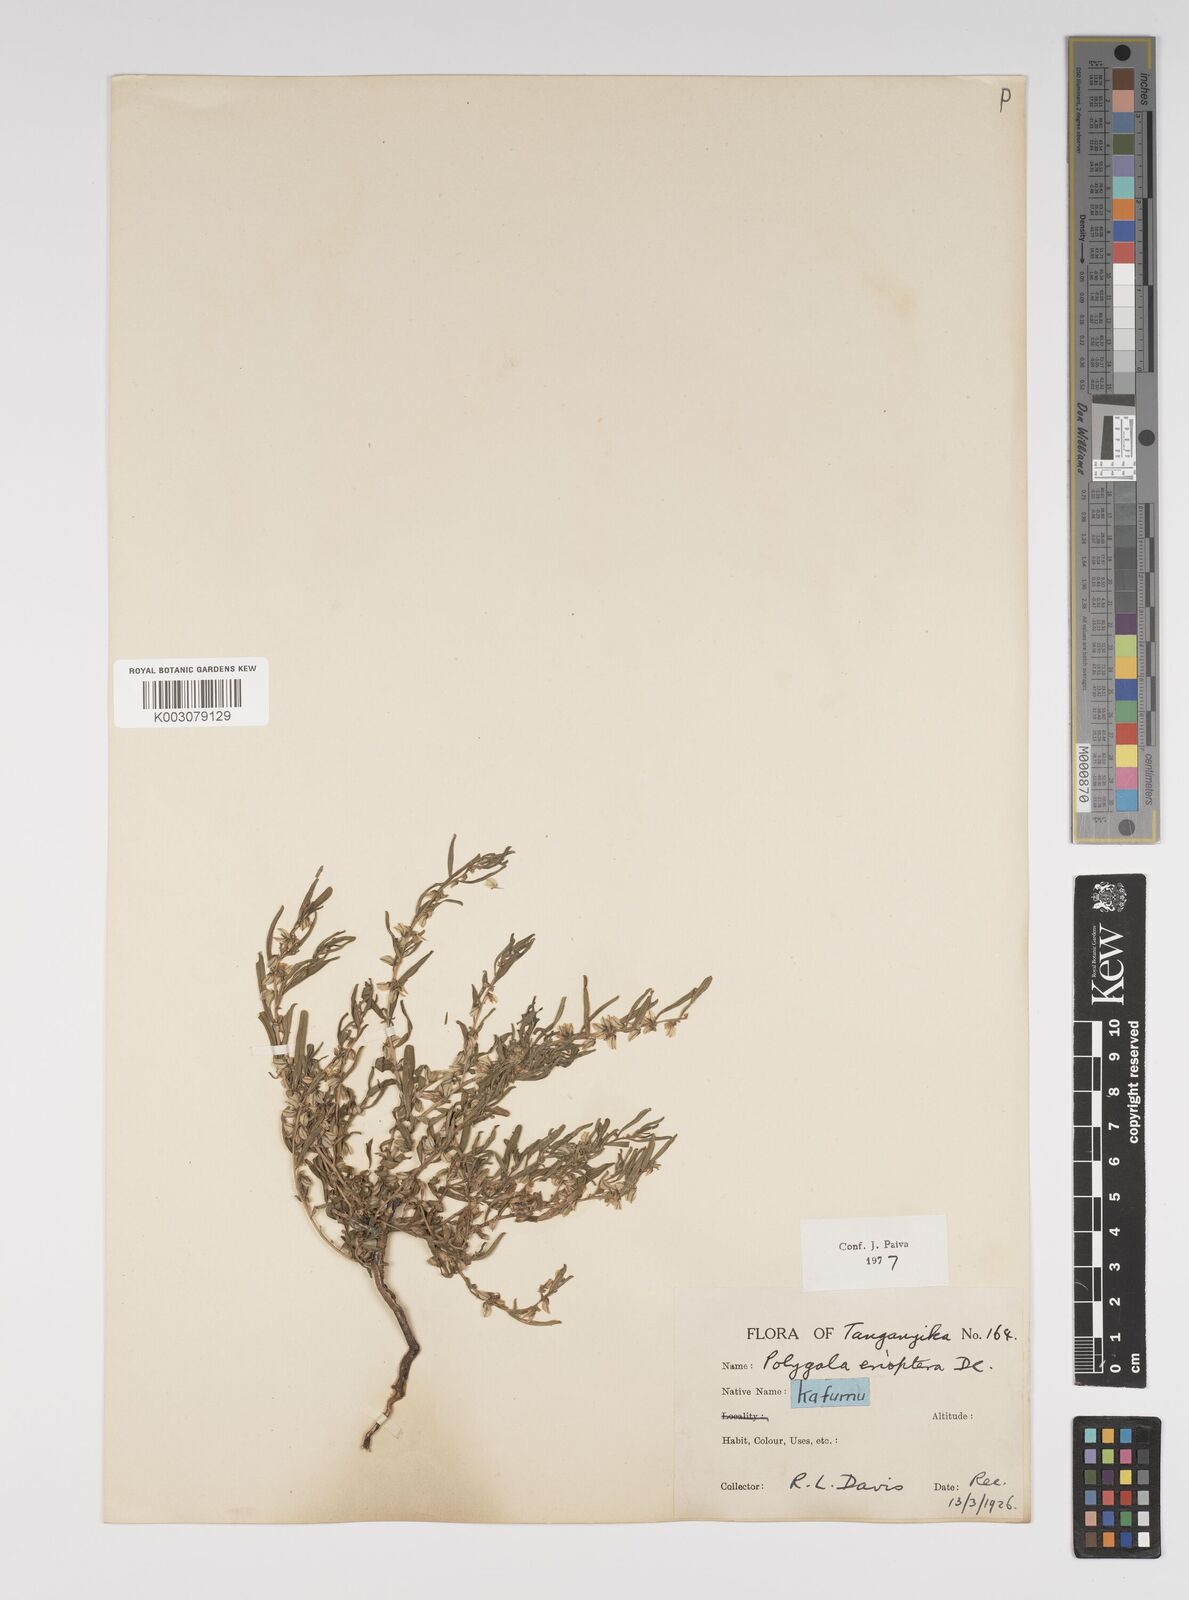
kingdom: Plantae
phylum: Tracheophyta
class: Magnoliopsida
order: Fabales
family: Polygalaceae
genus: Polygala
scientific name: Polygala erioptera
